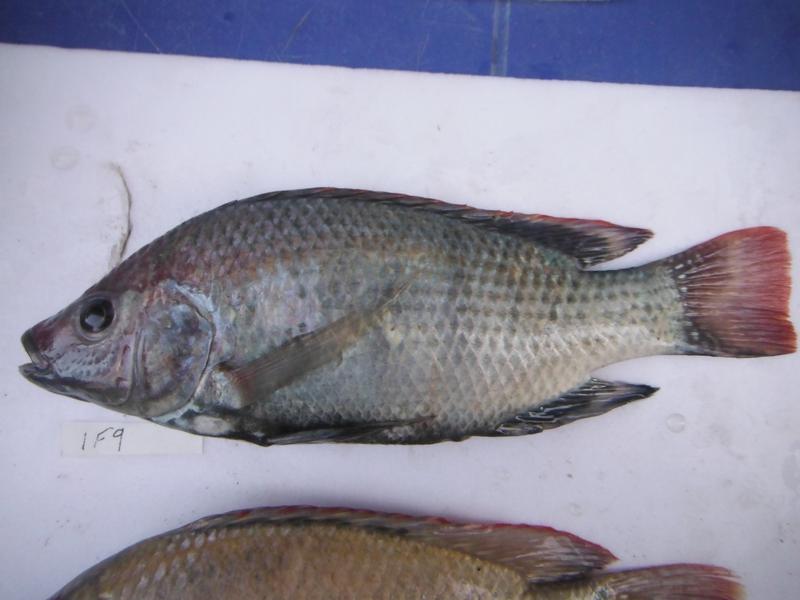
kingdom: Animalia
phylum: Chordata
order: Perciformes
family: Cichlidae
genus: Oreochromis
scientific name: Oreochromis rukwaensis
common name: Lake rukwa tilapia
